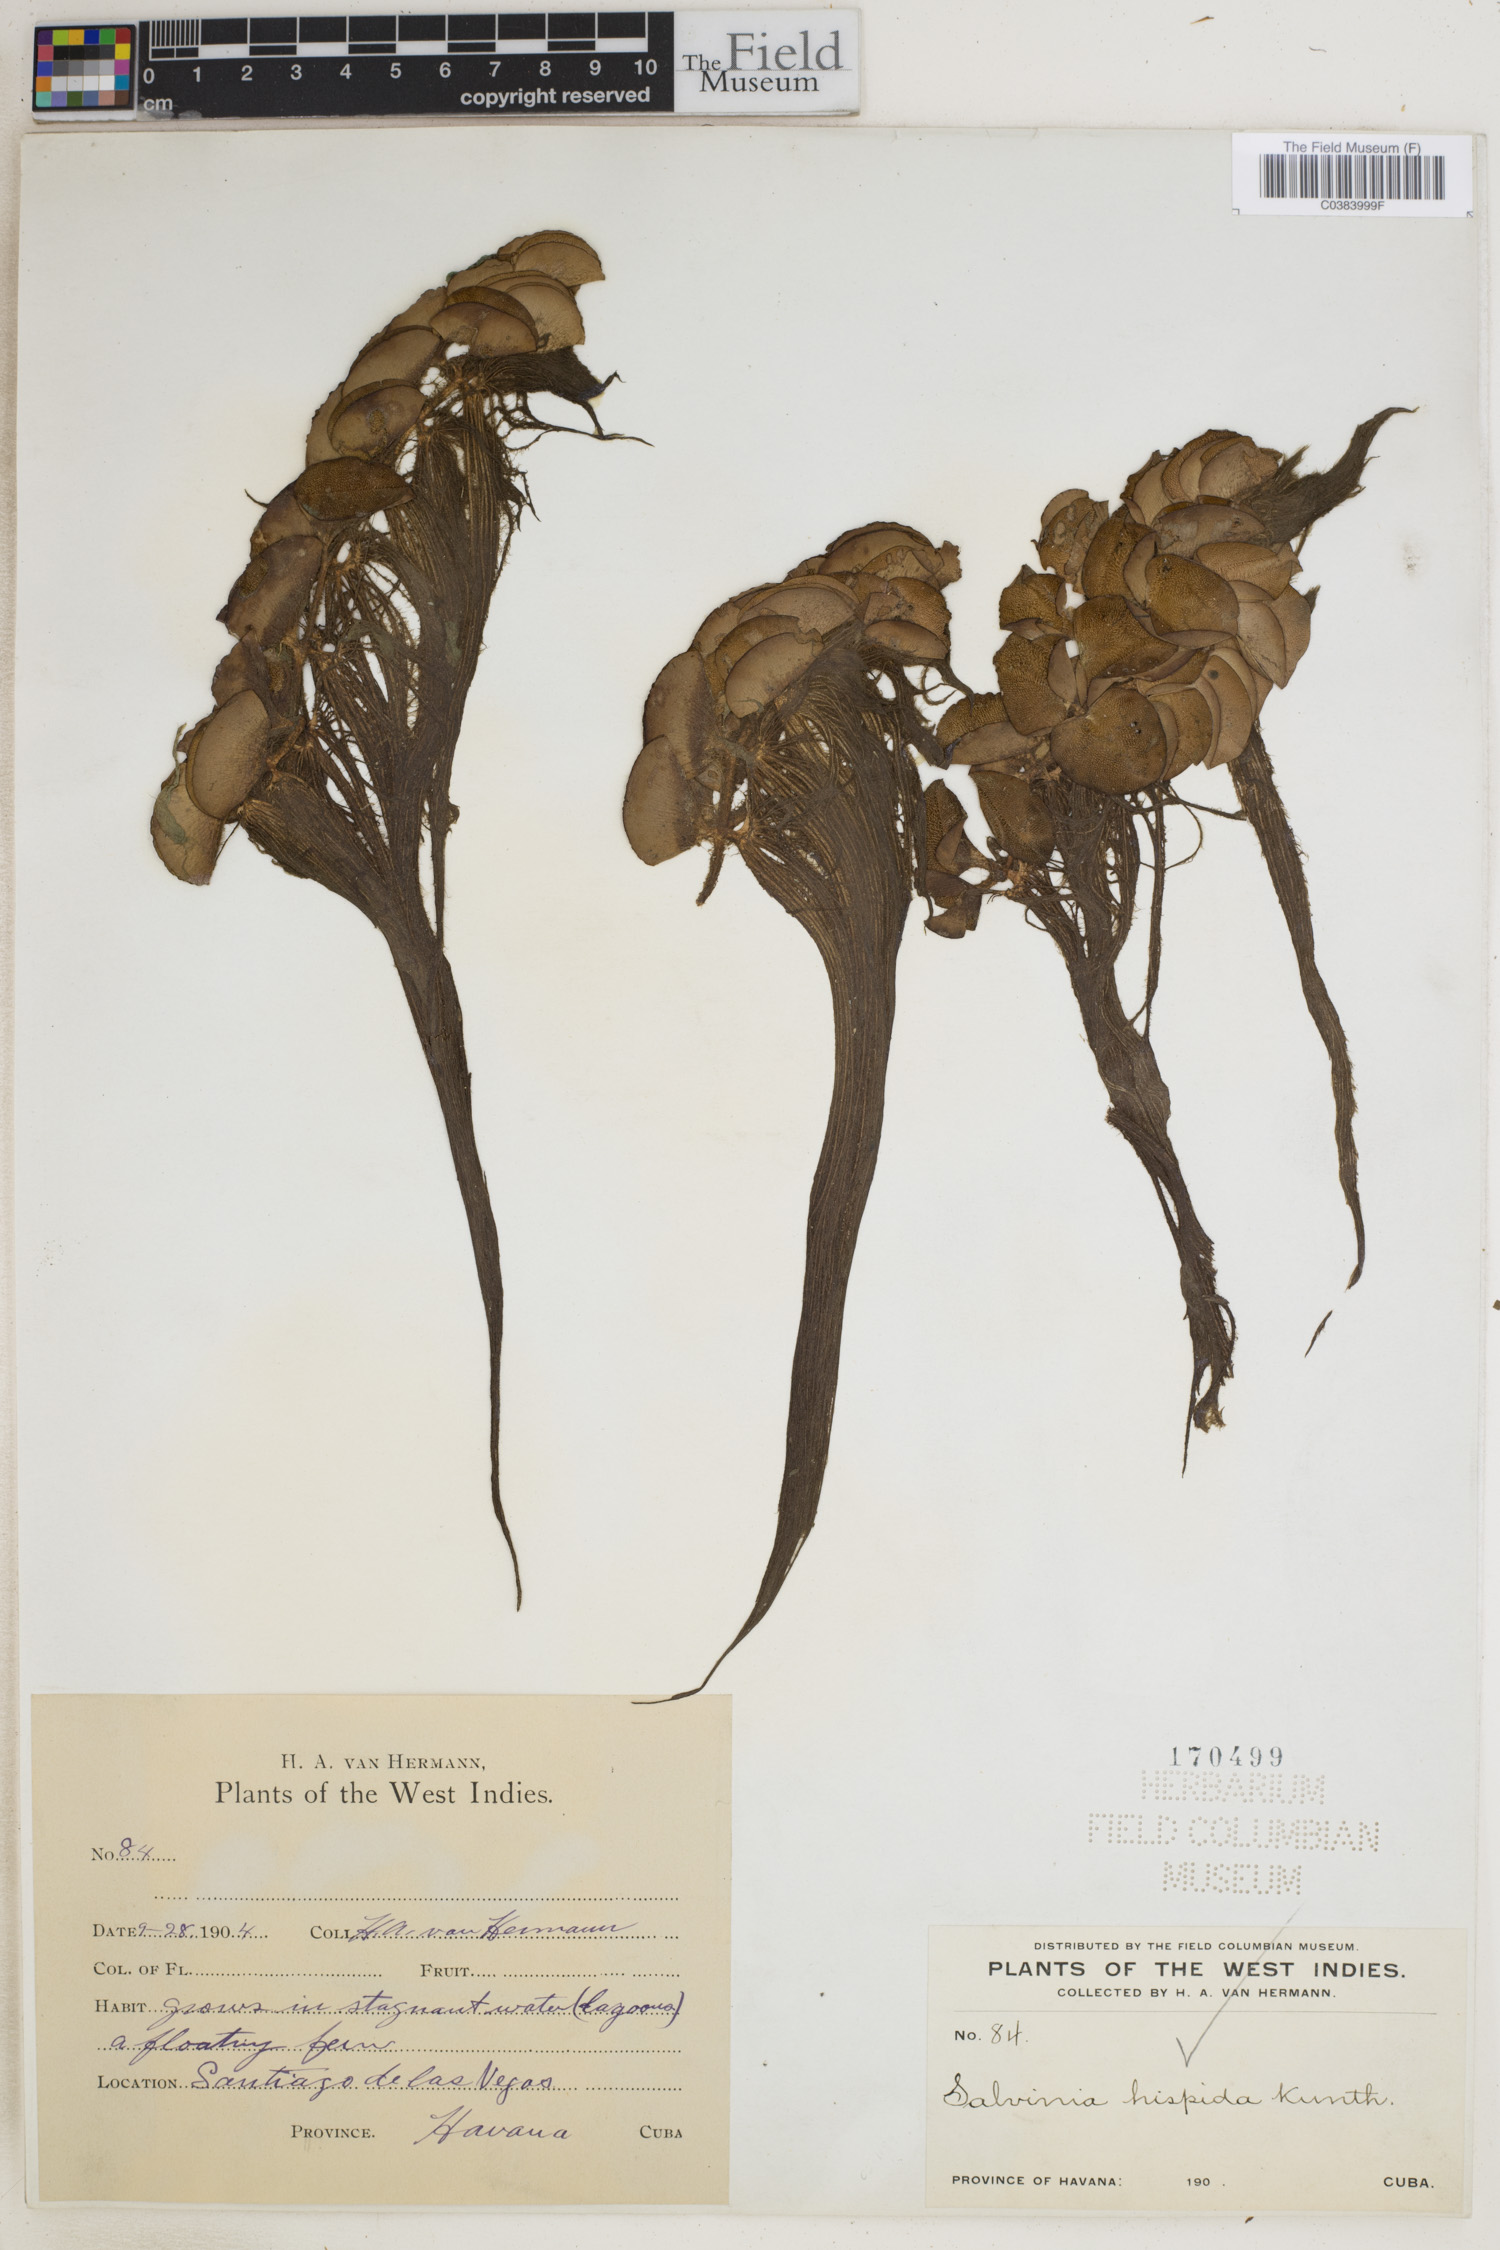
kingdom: Plantae
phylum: Tracheophyta
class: Polypodiopsida
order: Salviniales
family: Salviniaceae
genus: Salvinia
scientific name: Salvinia auriculata
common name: African payal
